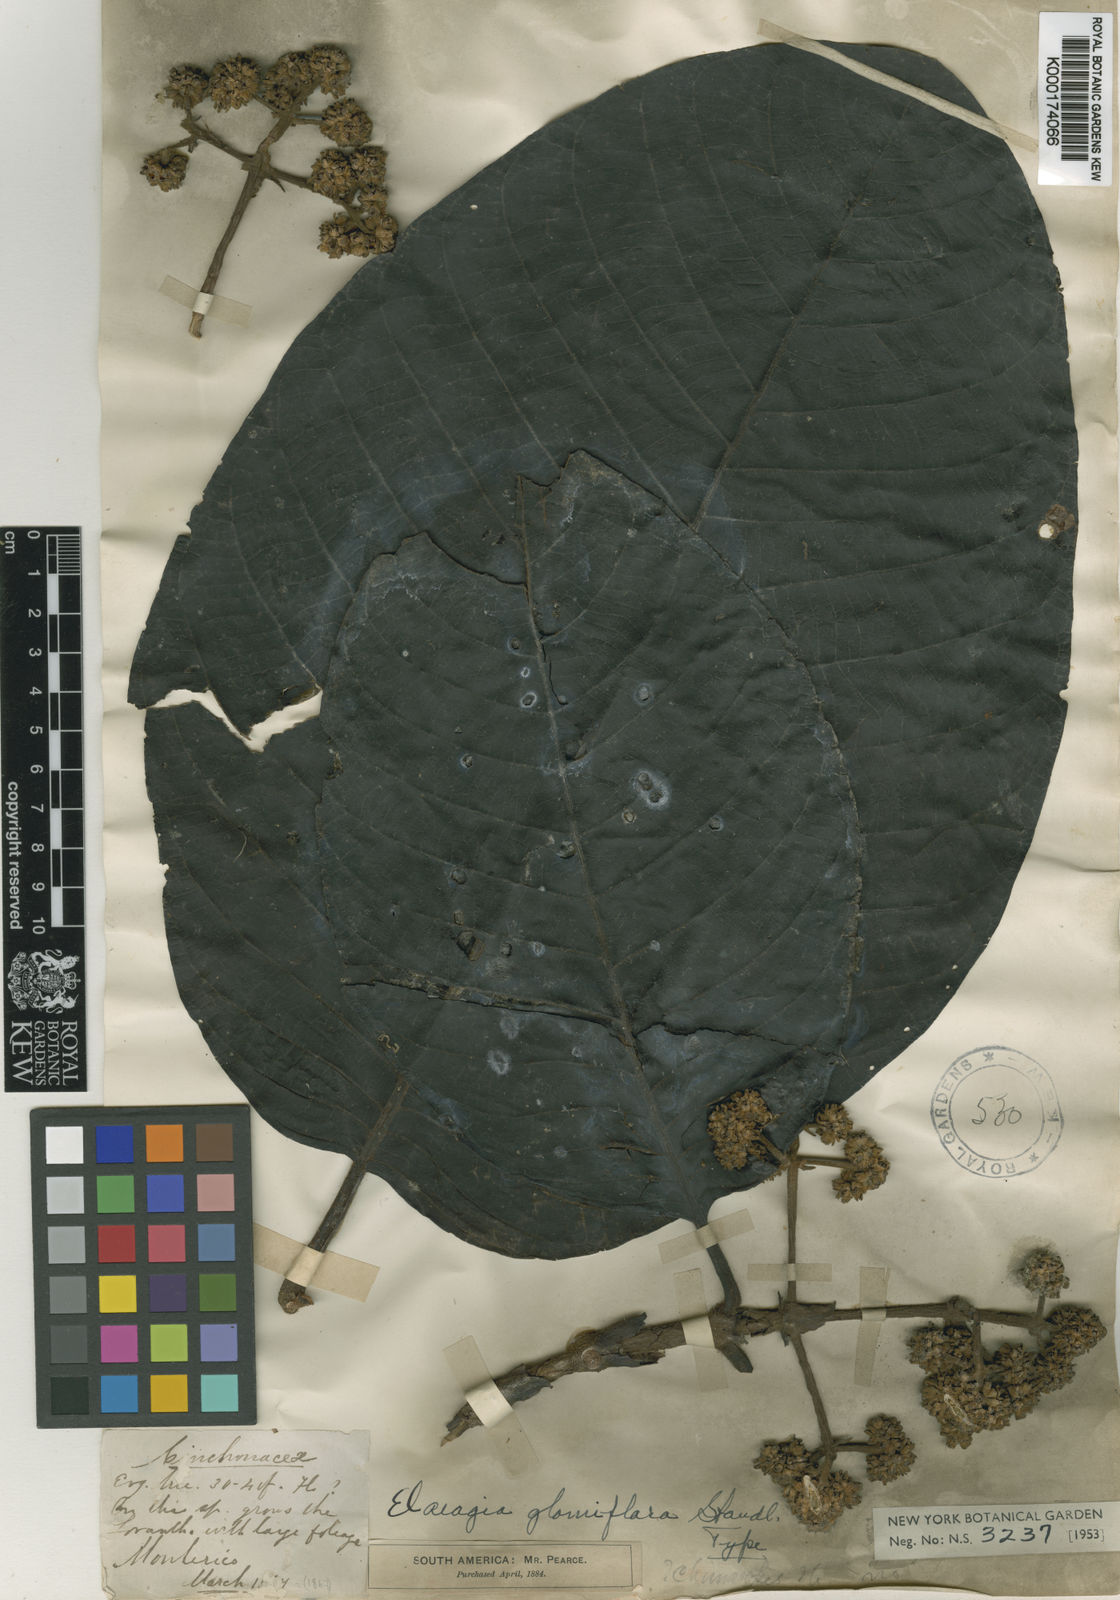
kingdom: Plantae
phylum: Tracheophyta
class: Magnoliopsida
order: Gentianales
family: Rubiaceae
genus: Bathysa
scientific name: Bathysa australis
